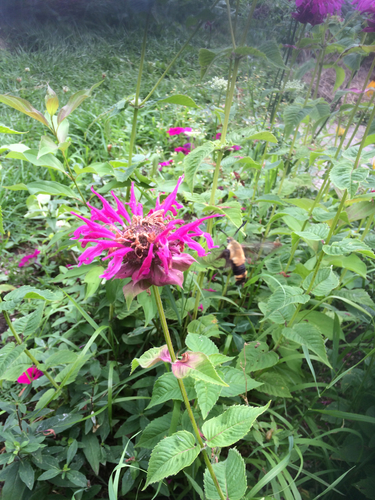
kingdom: Animalia
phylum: Arthropoda
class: Insecta
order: Lepidoptera
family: Sphingidae
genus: Hemaris
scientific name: Hemaris diffinis
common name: Bumblebee moth
